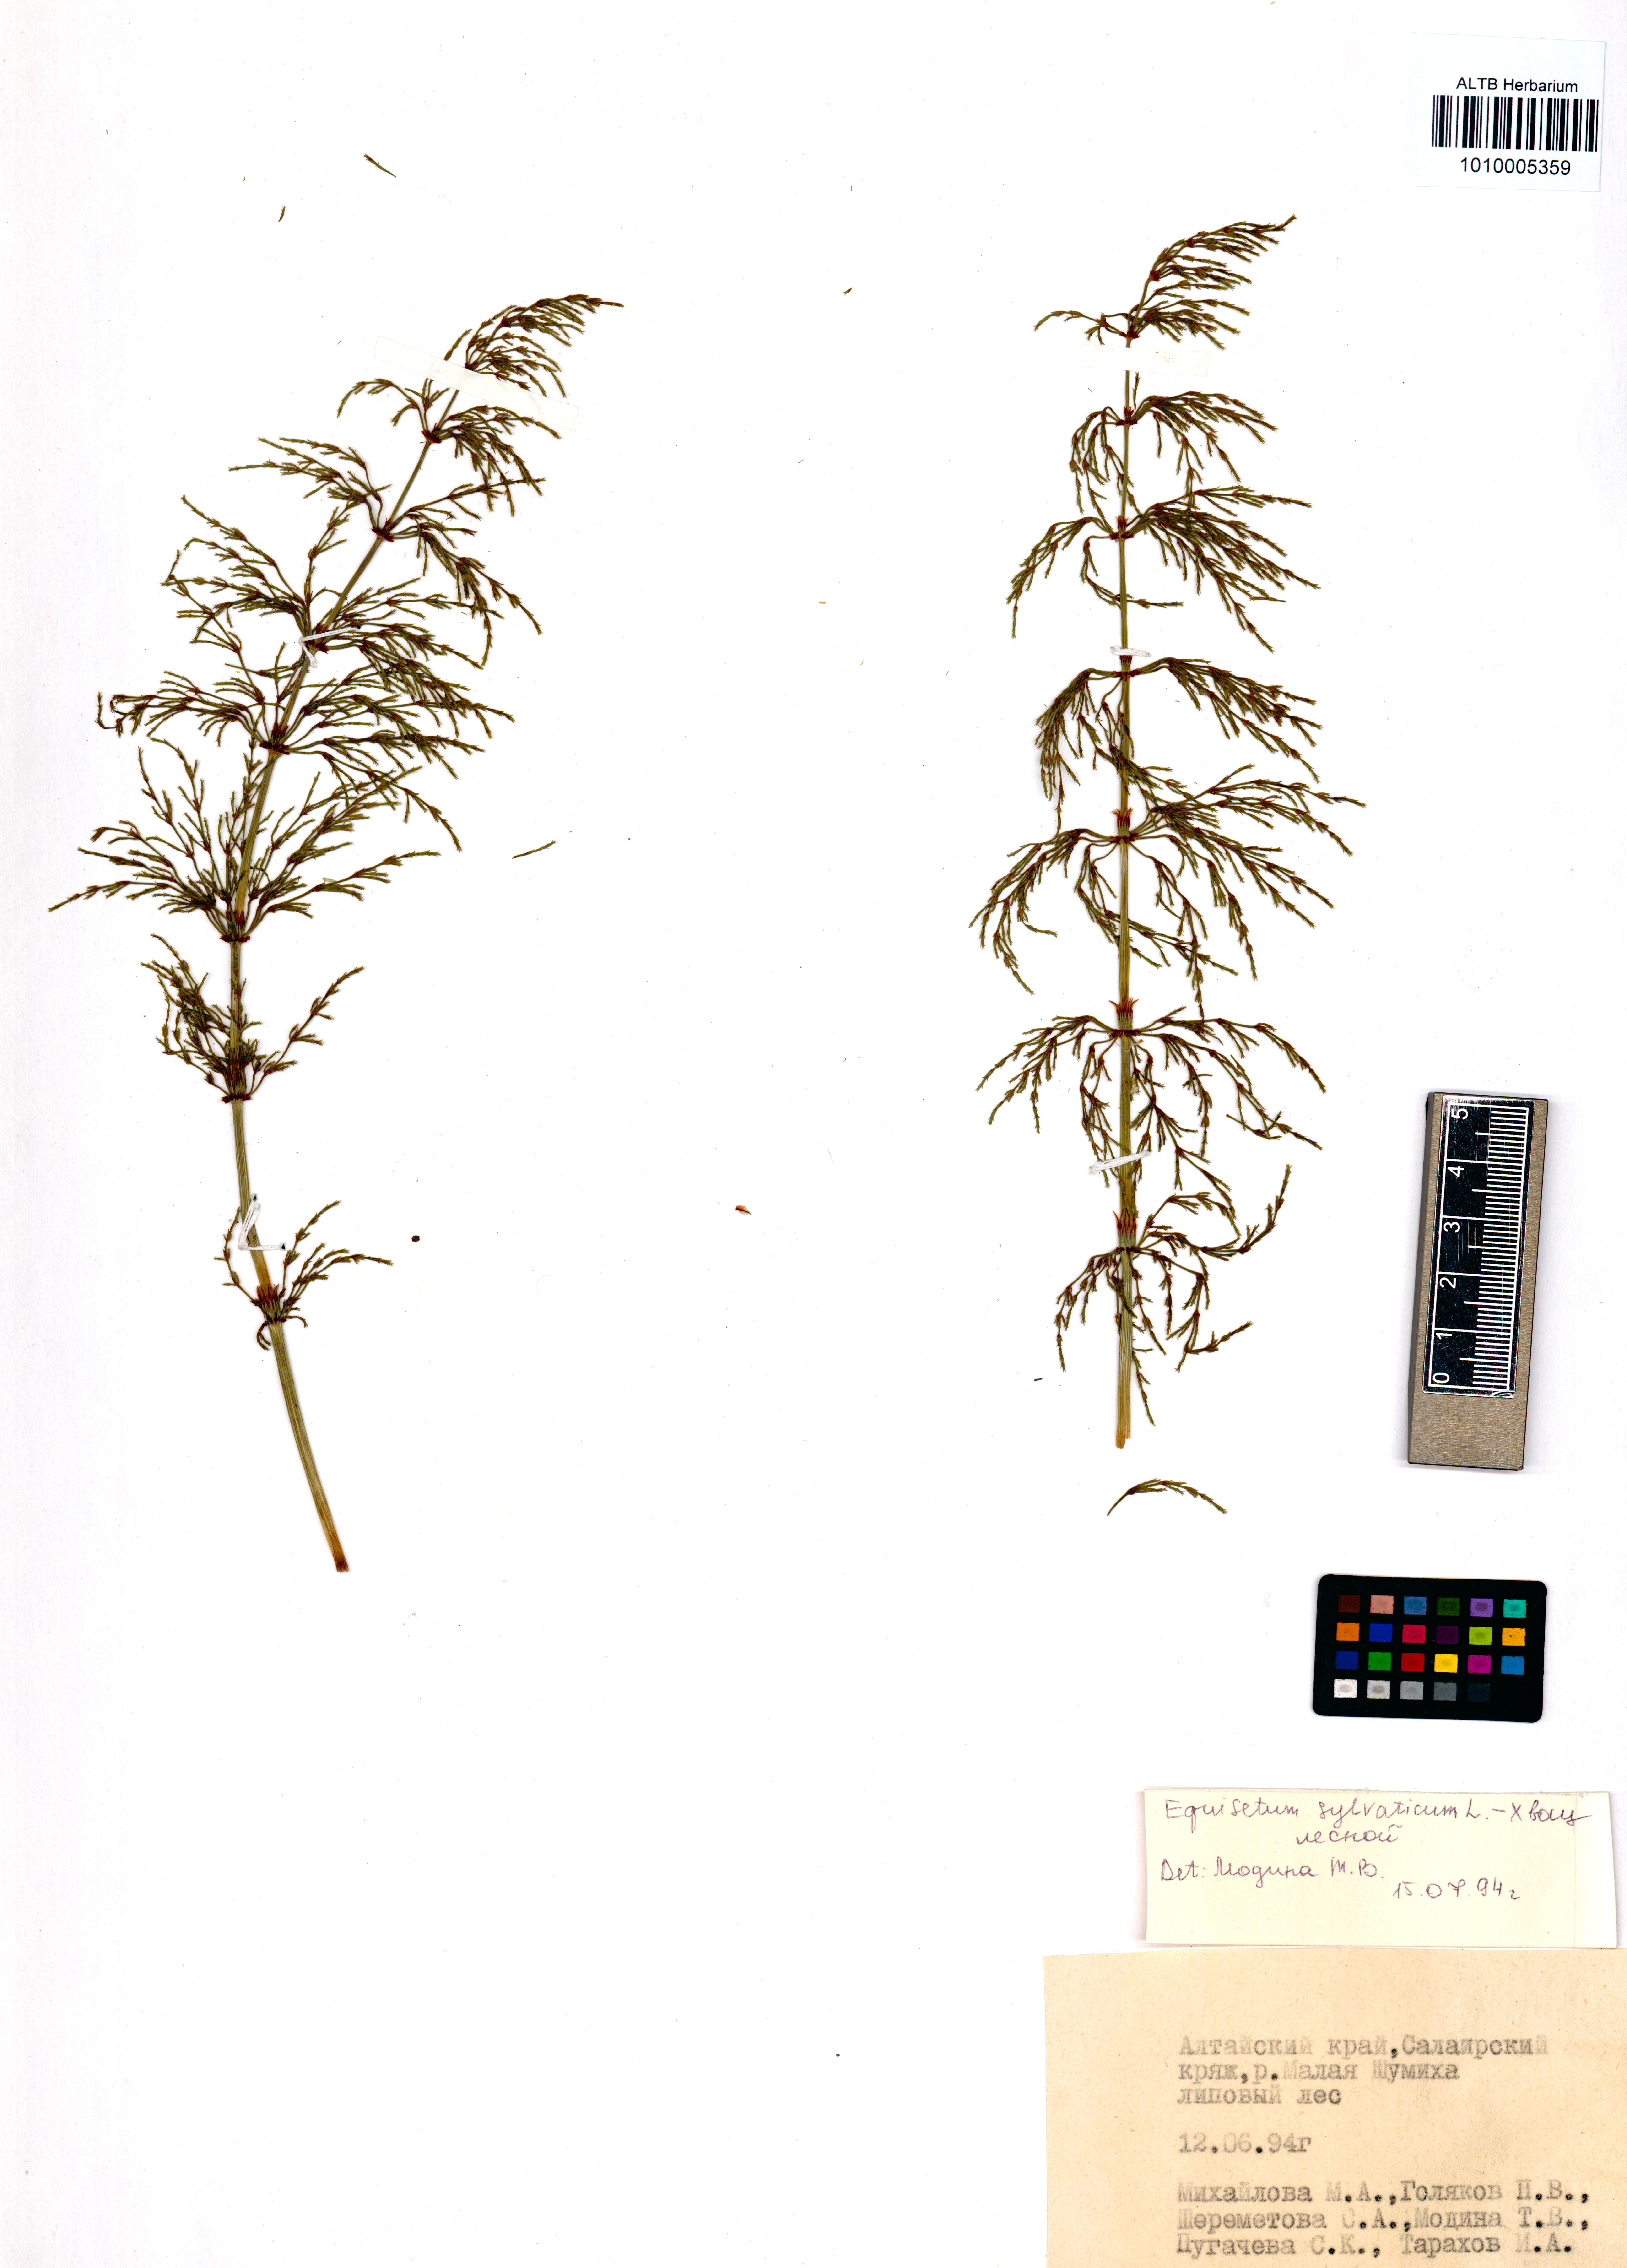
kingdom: Plantae
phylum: Tracheophyta
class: Polypodiopsida
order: Equisetales
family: Equisetaceae
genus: Equisetum
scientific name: Equisetum sylvaticum
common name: Wood horsetail
